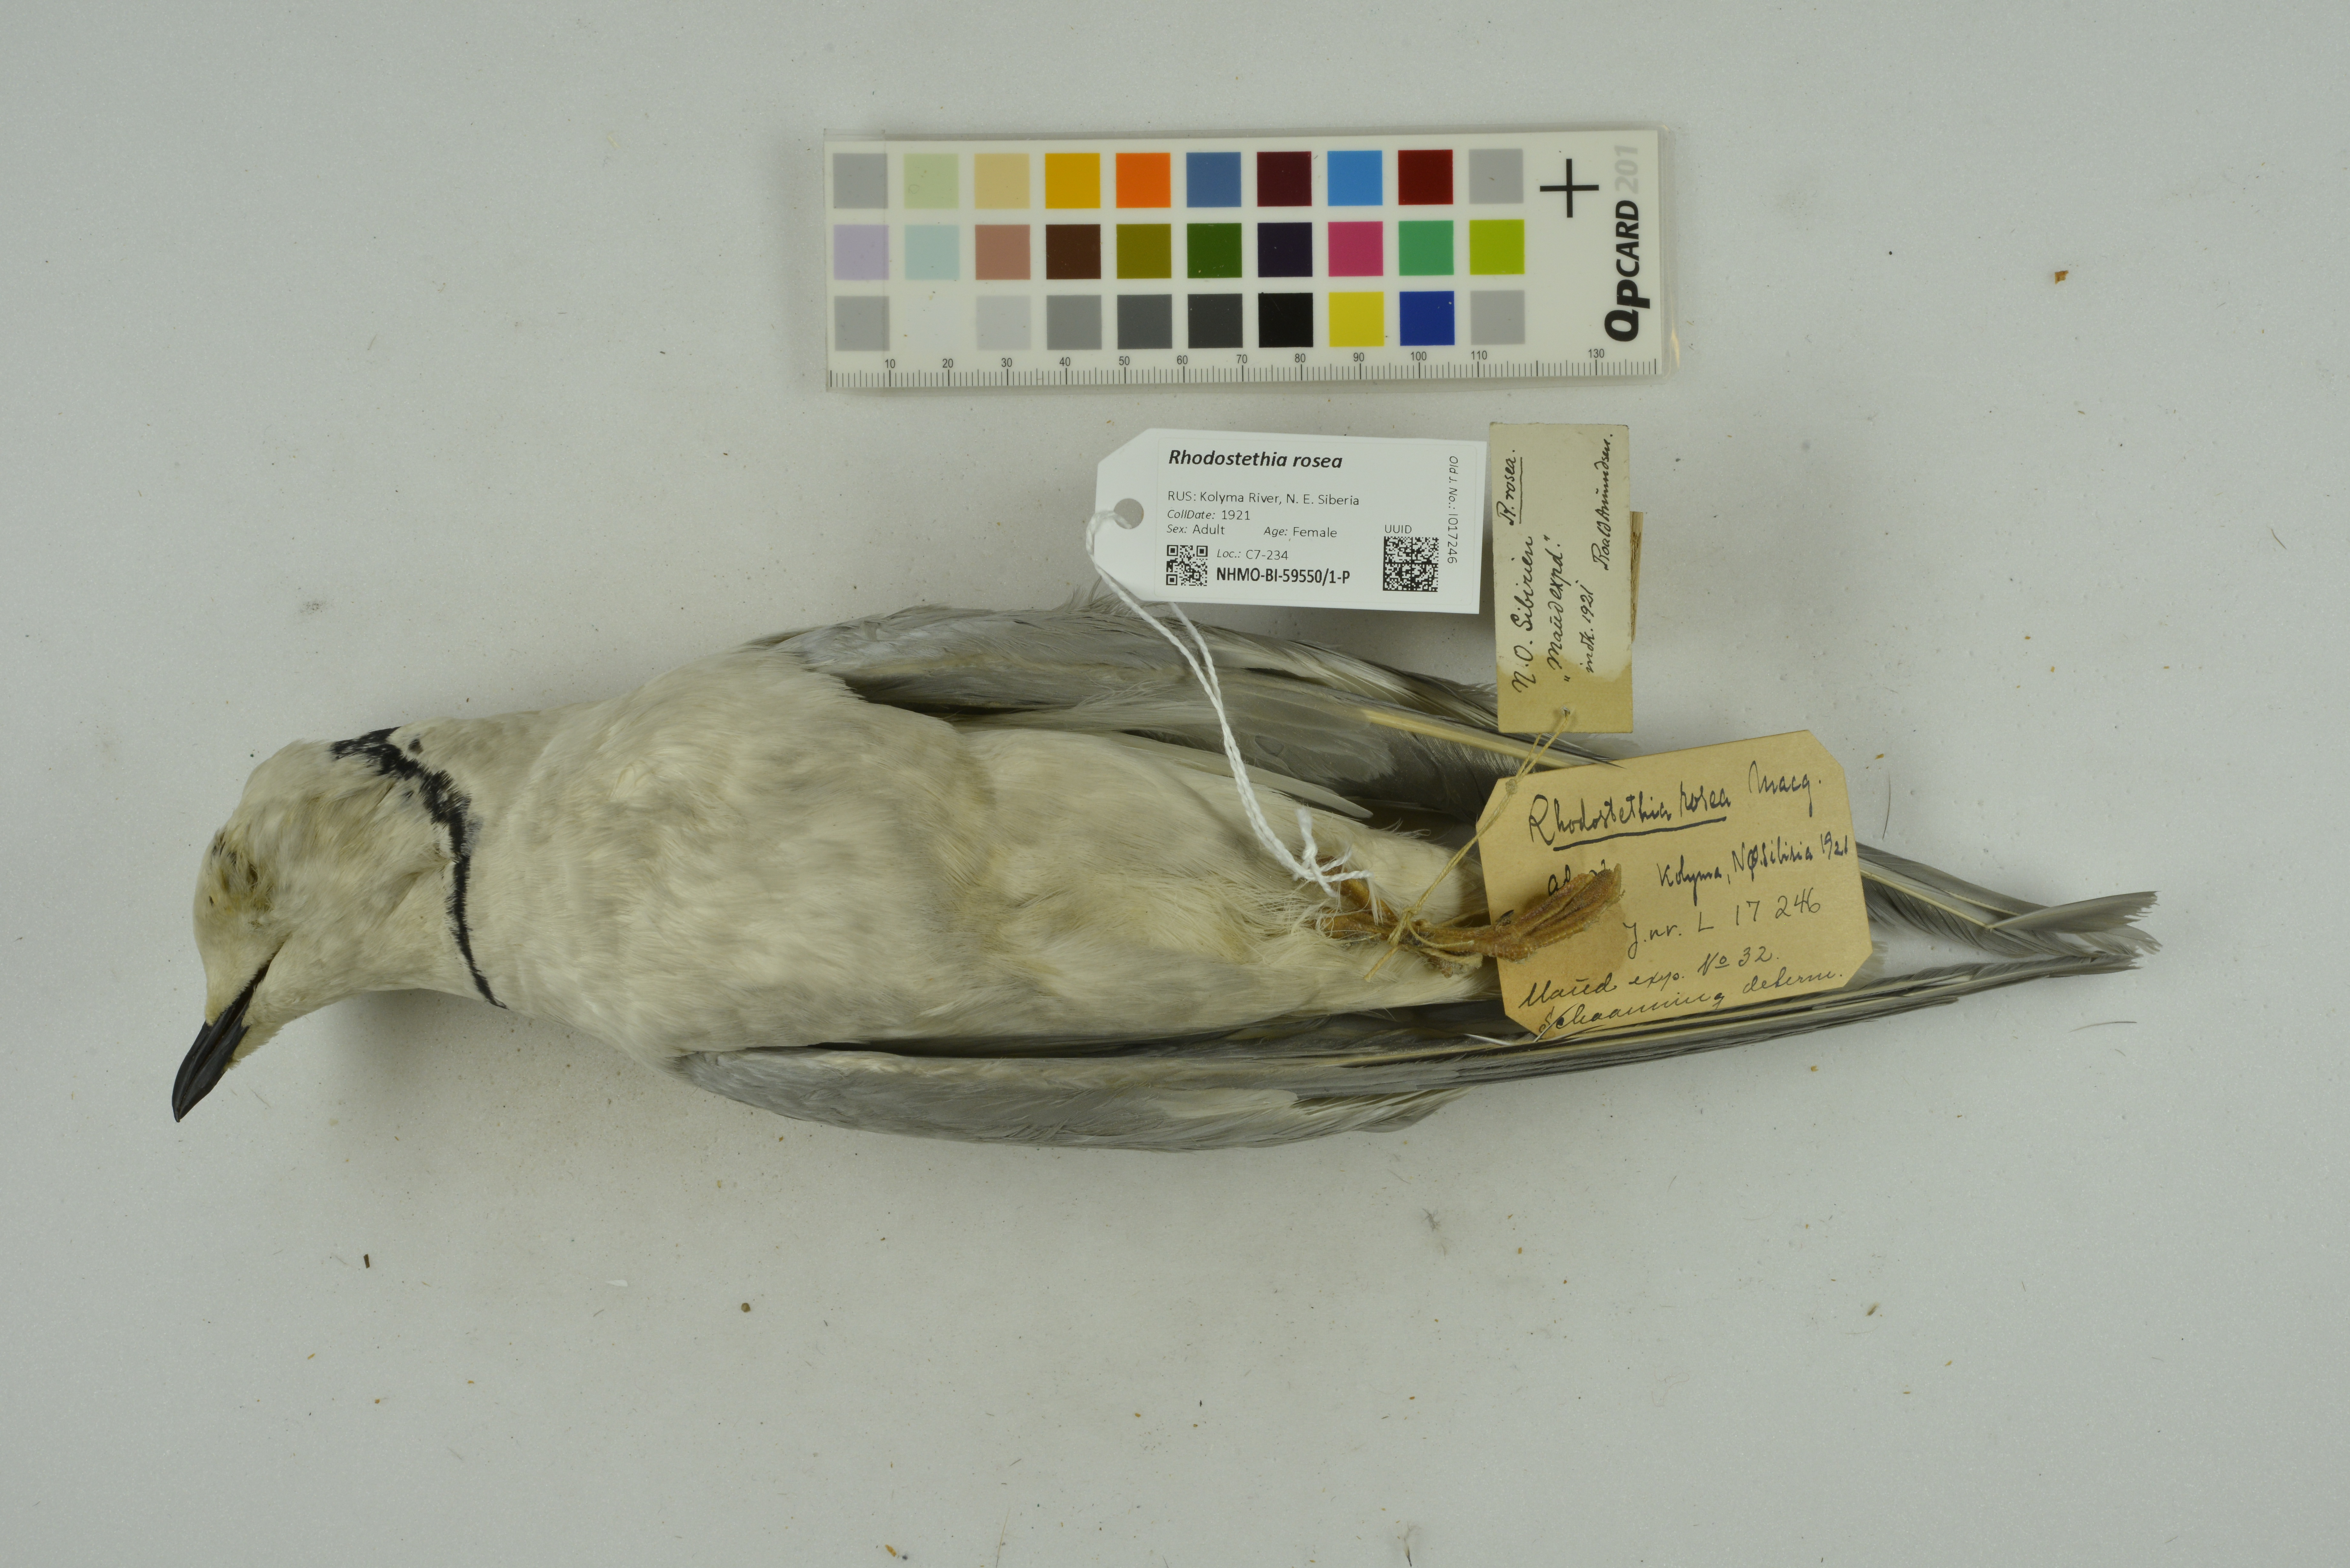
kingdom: Animalia
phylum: Chordata
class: Aves
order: Charadriiformes
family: Laridae
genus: Rhodostethia
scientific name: Rhodostethia rosea
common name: Ross's gull
